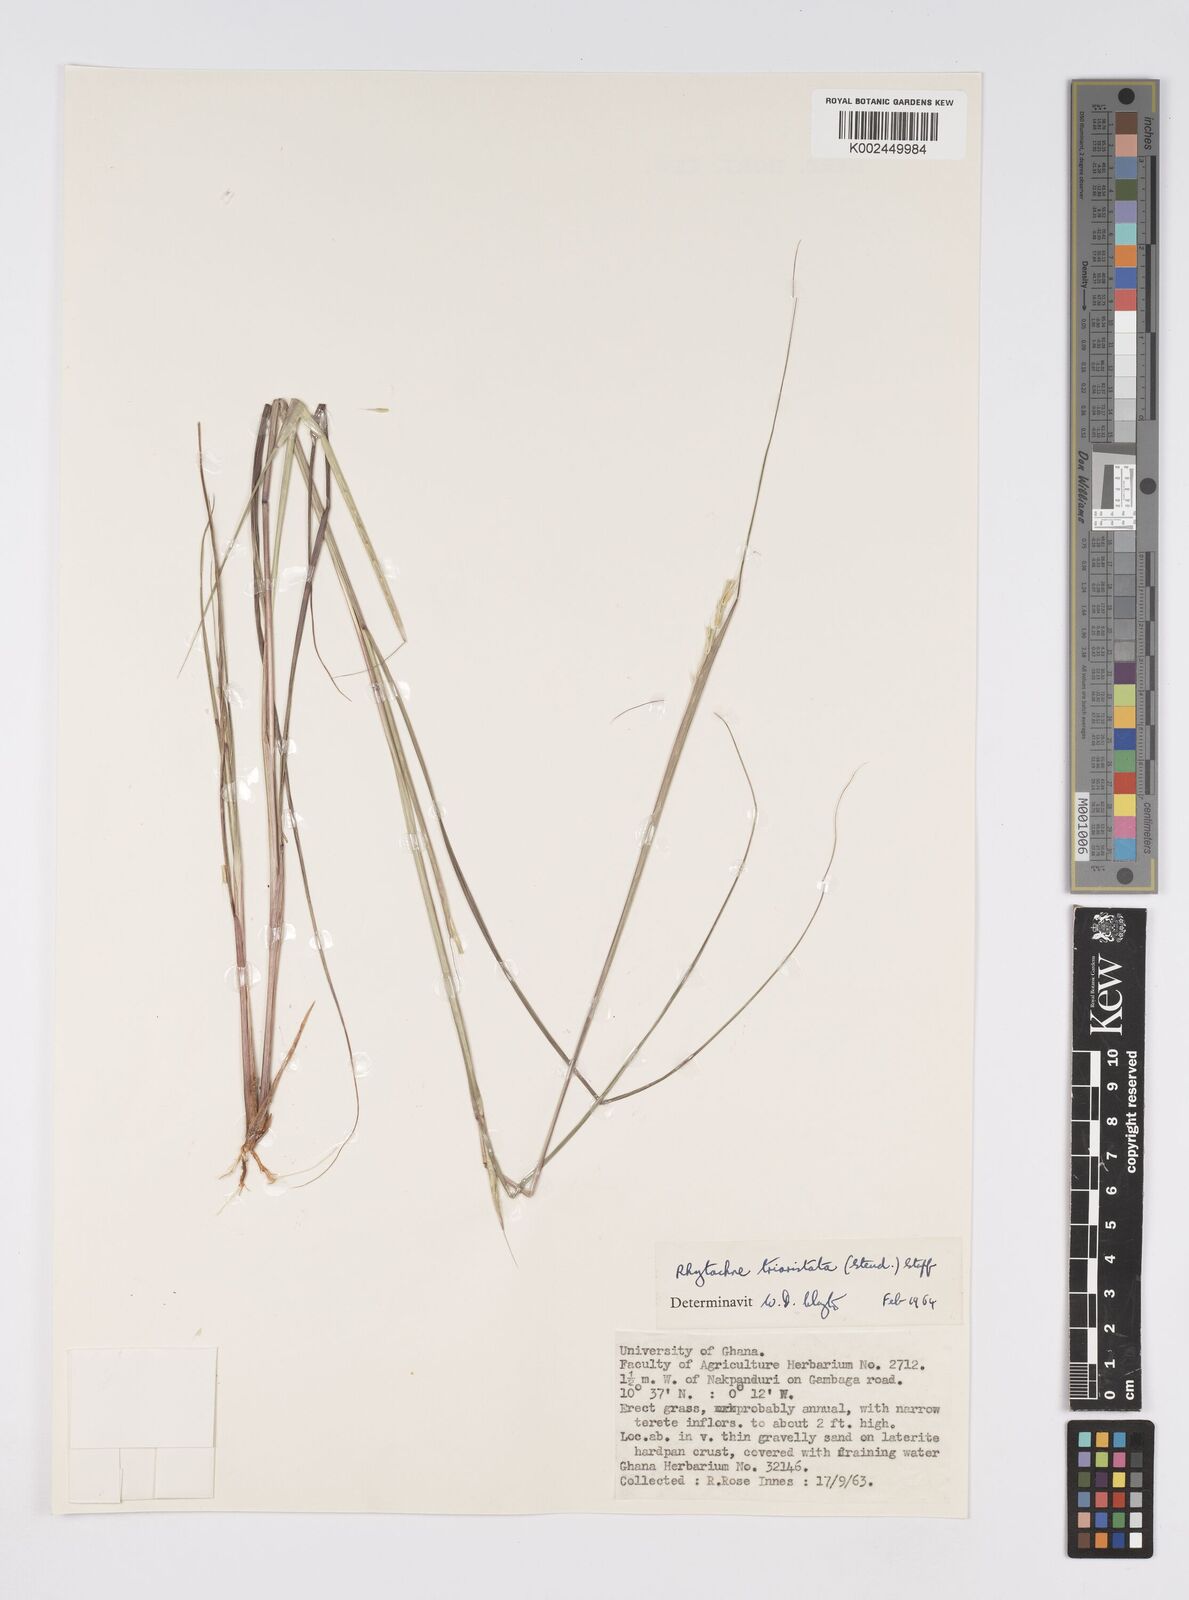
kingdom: Plantae
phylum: Tracheophyta
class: Liliopsida
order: Poales
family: Poaceae
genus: Rhytachne
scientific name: Rhytachne triaristata
